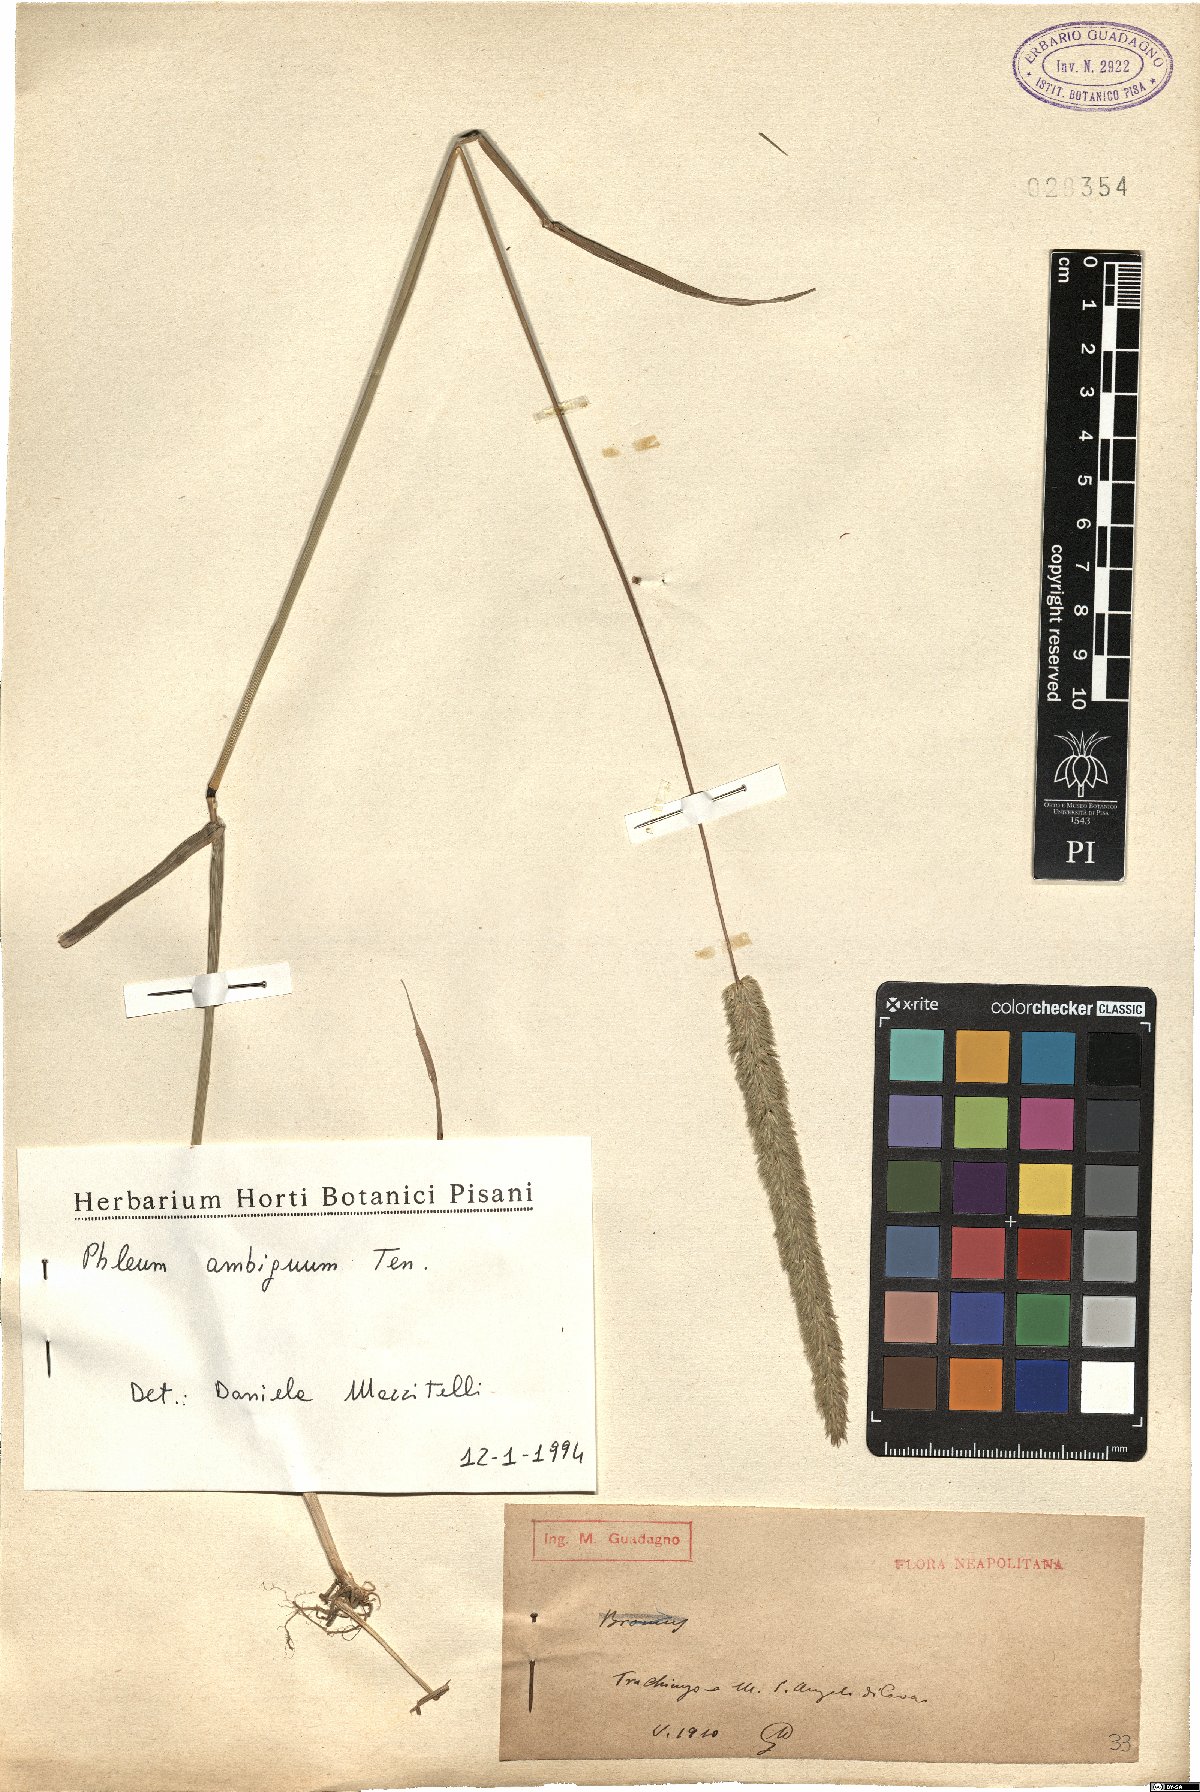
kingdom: Plantae
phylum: Tracheophyta
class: Liliopsida
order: Poales
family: Poaceae
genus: Phleum
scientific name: Phleum hirsutum
